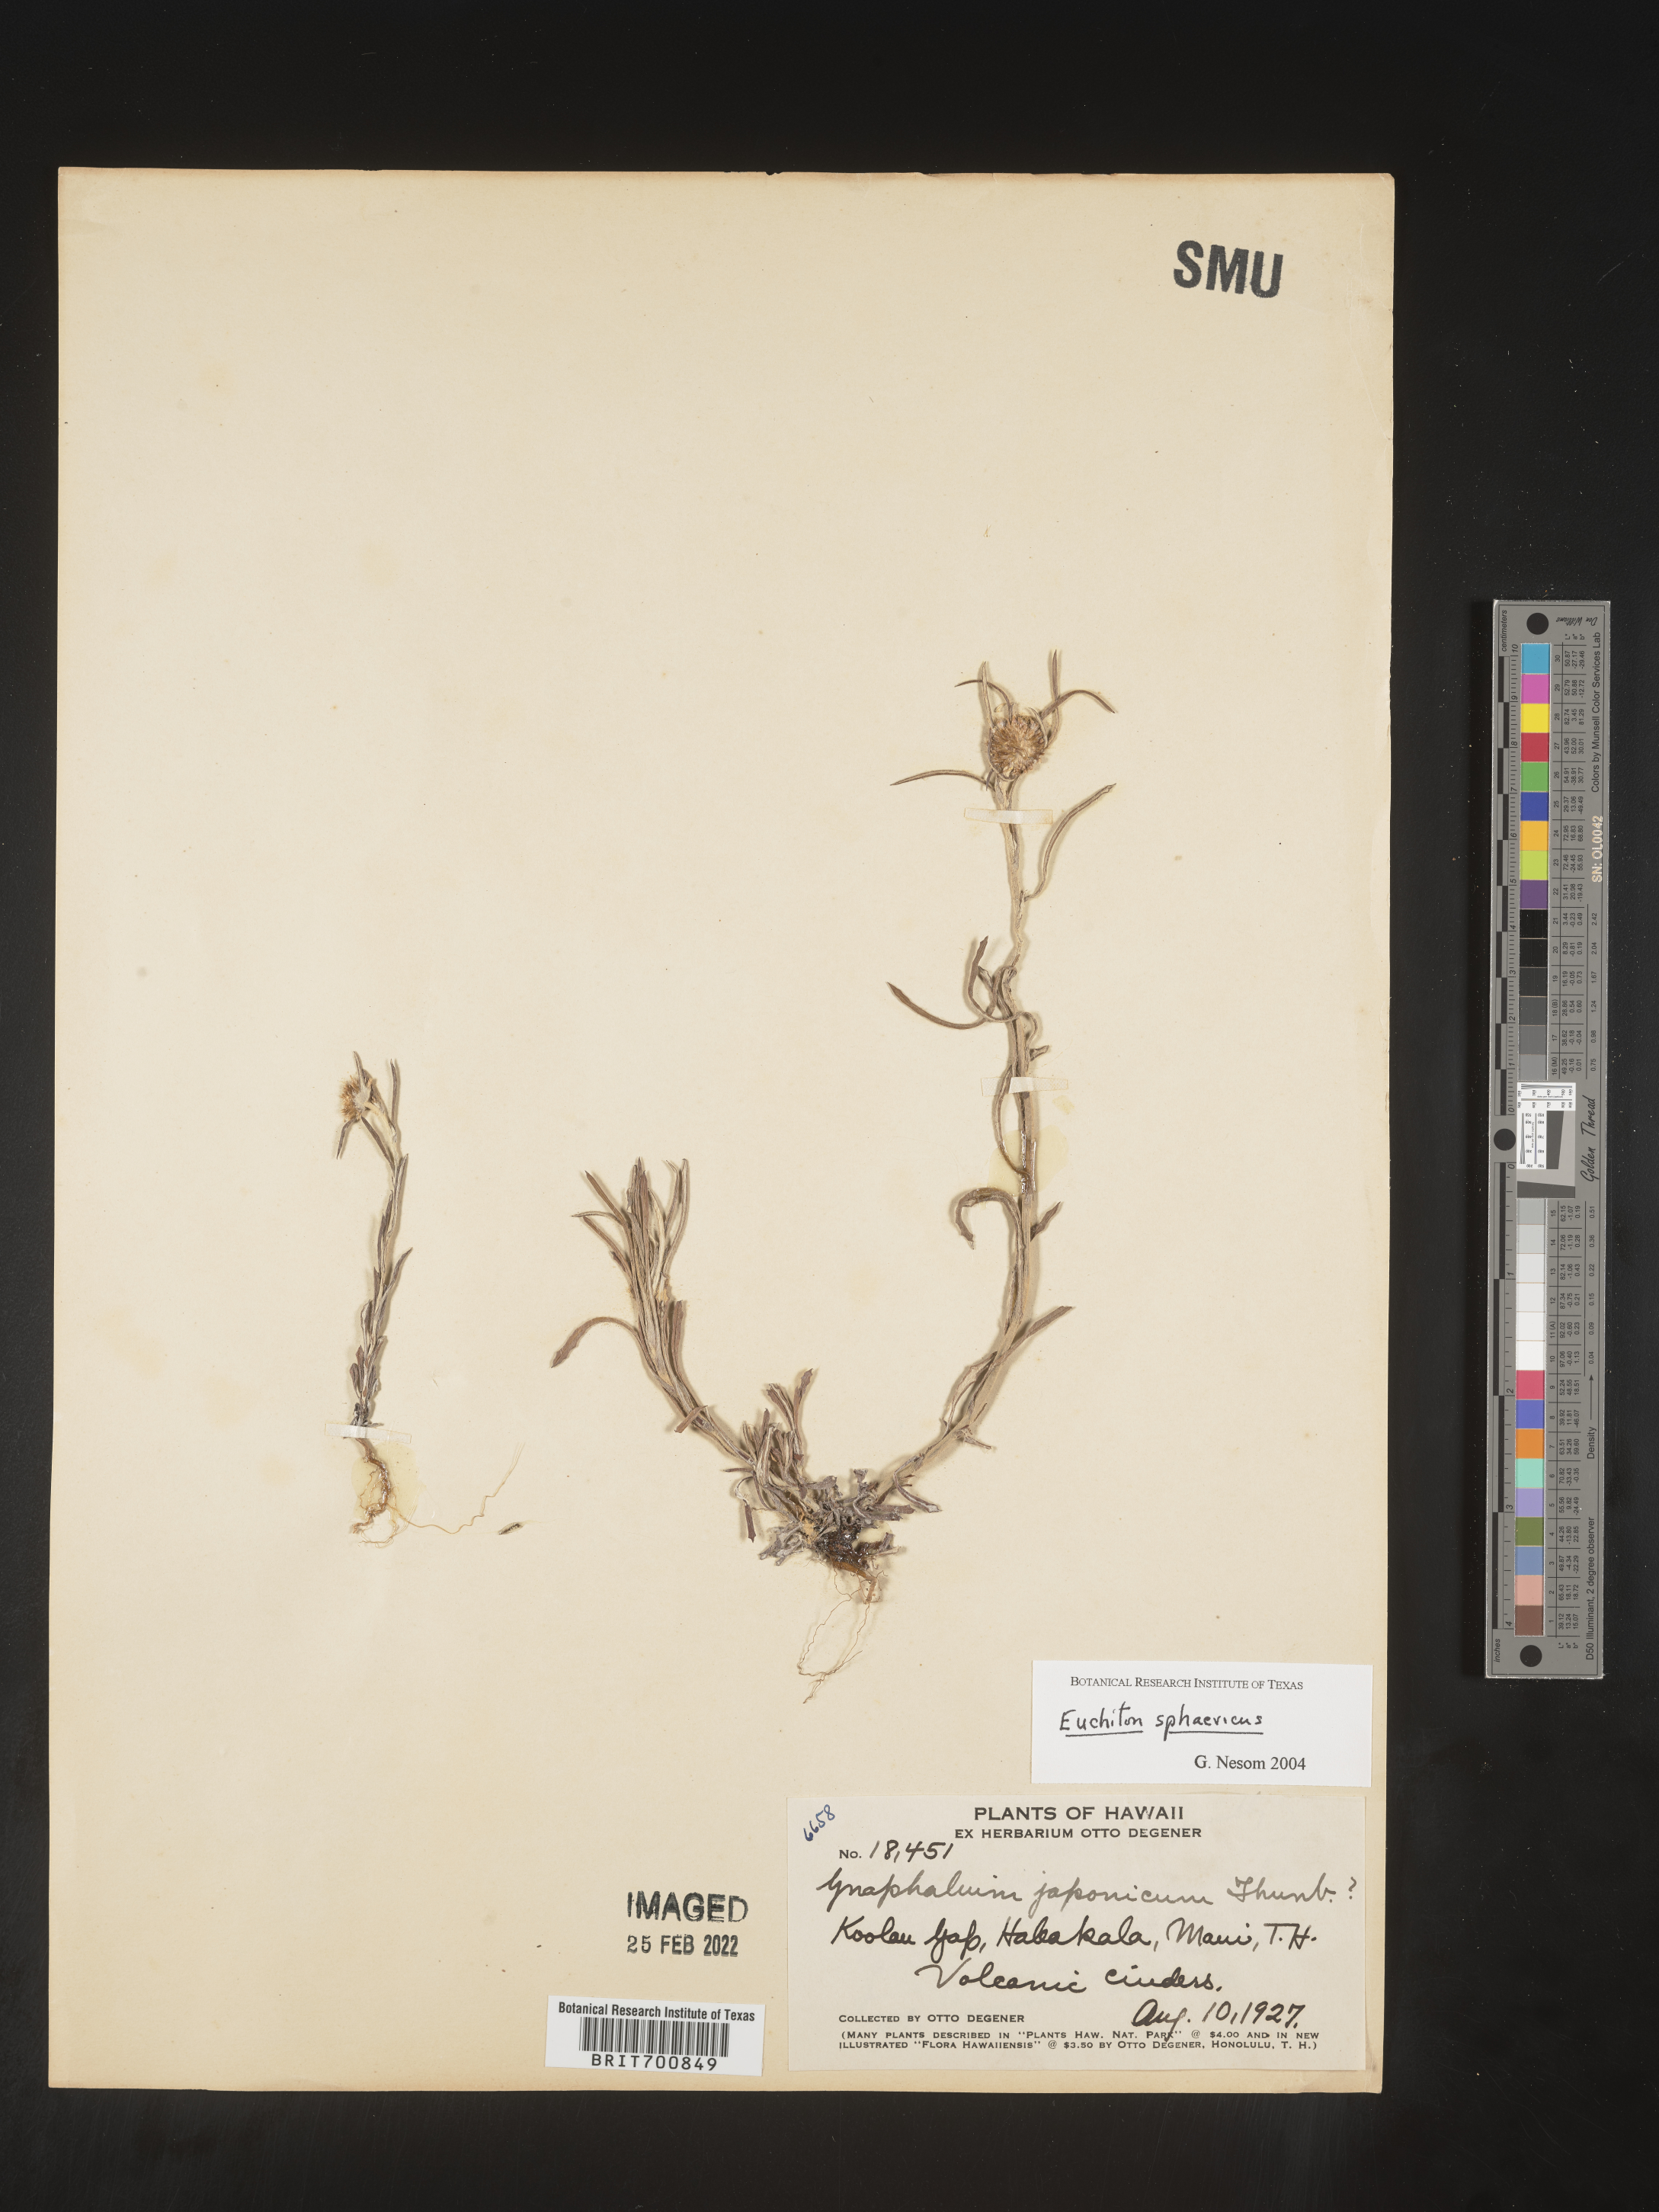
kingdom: Plantae
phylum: Tracheophyta
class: Magnoliopsida
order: Asterales
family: Asteraceae
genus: Euchiton
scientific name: Euchiton
